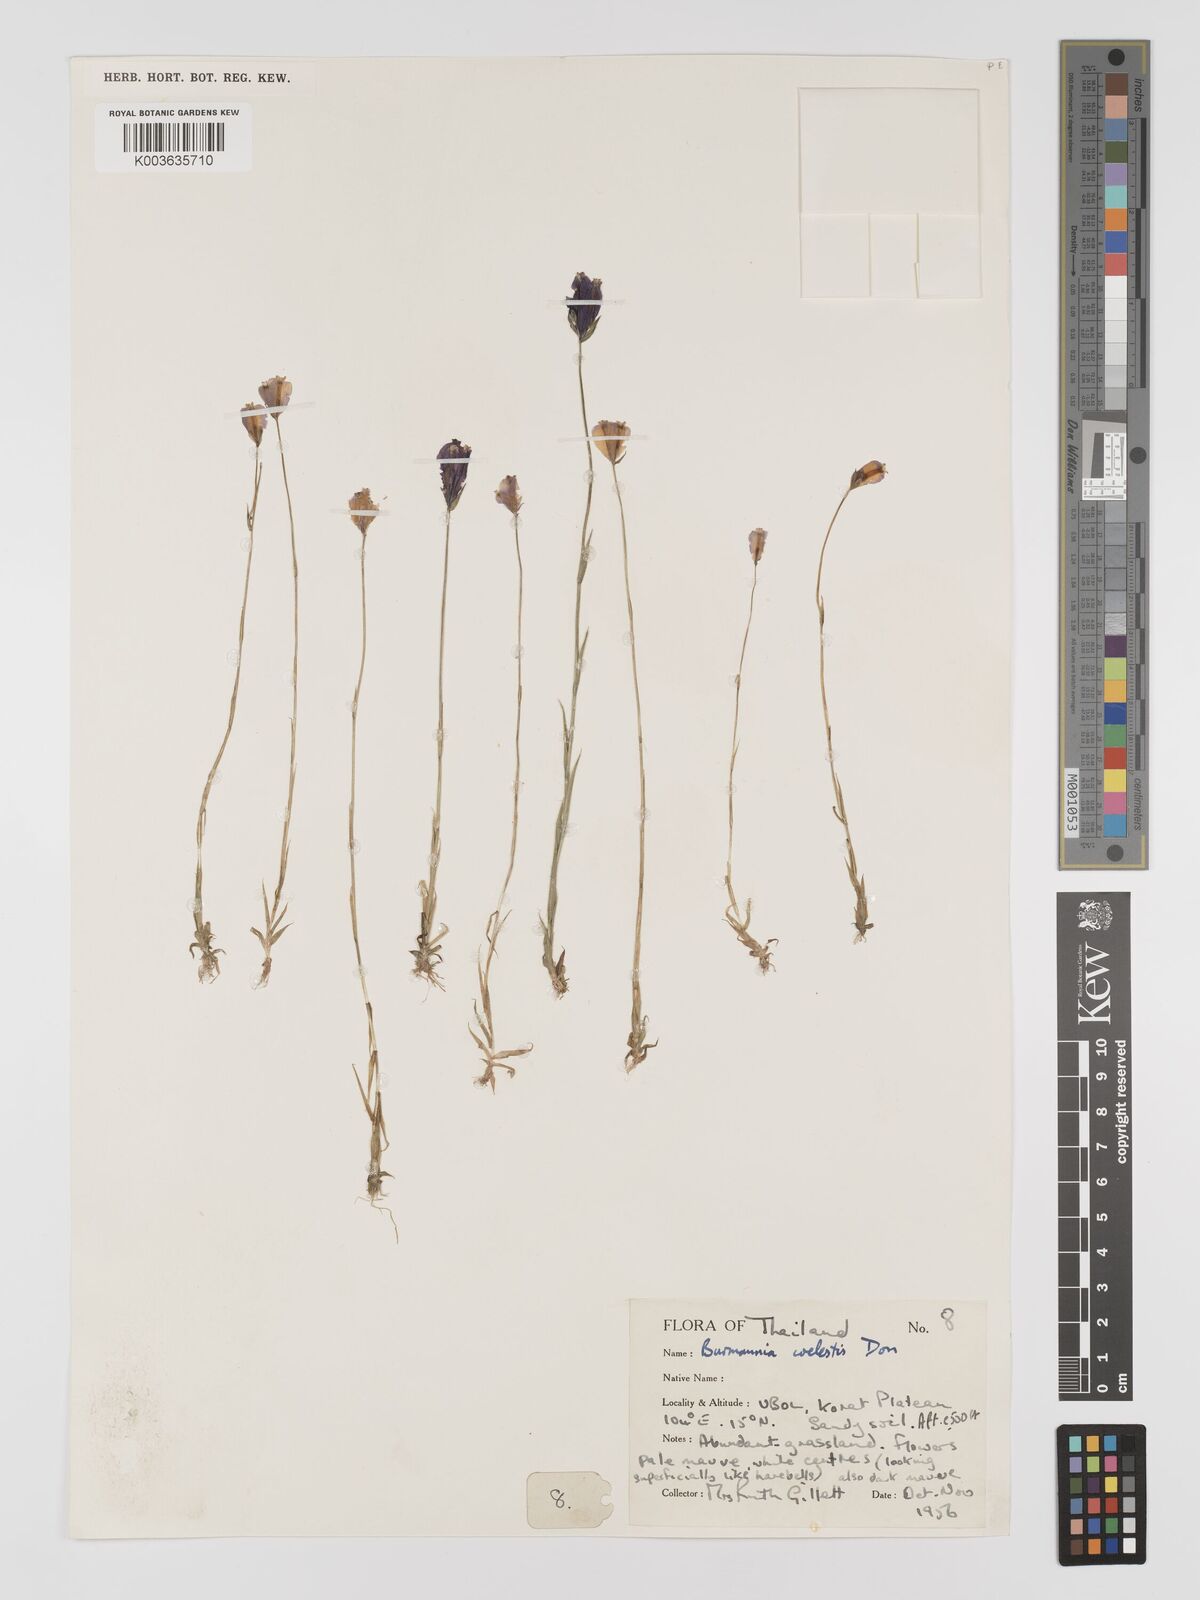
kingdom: Plantae
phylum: Tracheophyta
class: Liliopsida
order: Dioscoreales
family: Burmanniaceae
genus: Burmannia
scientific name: Burmannia coelestis
